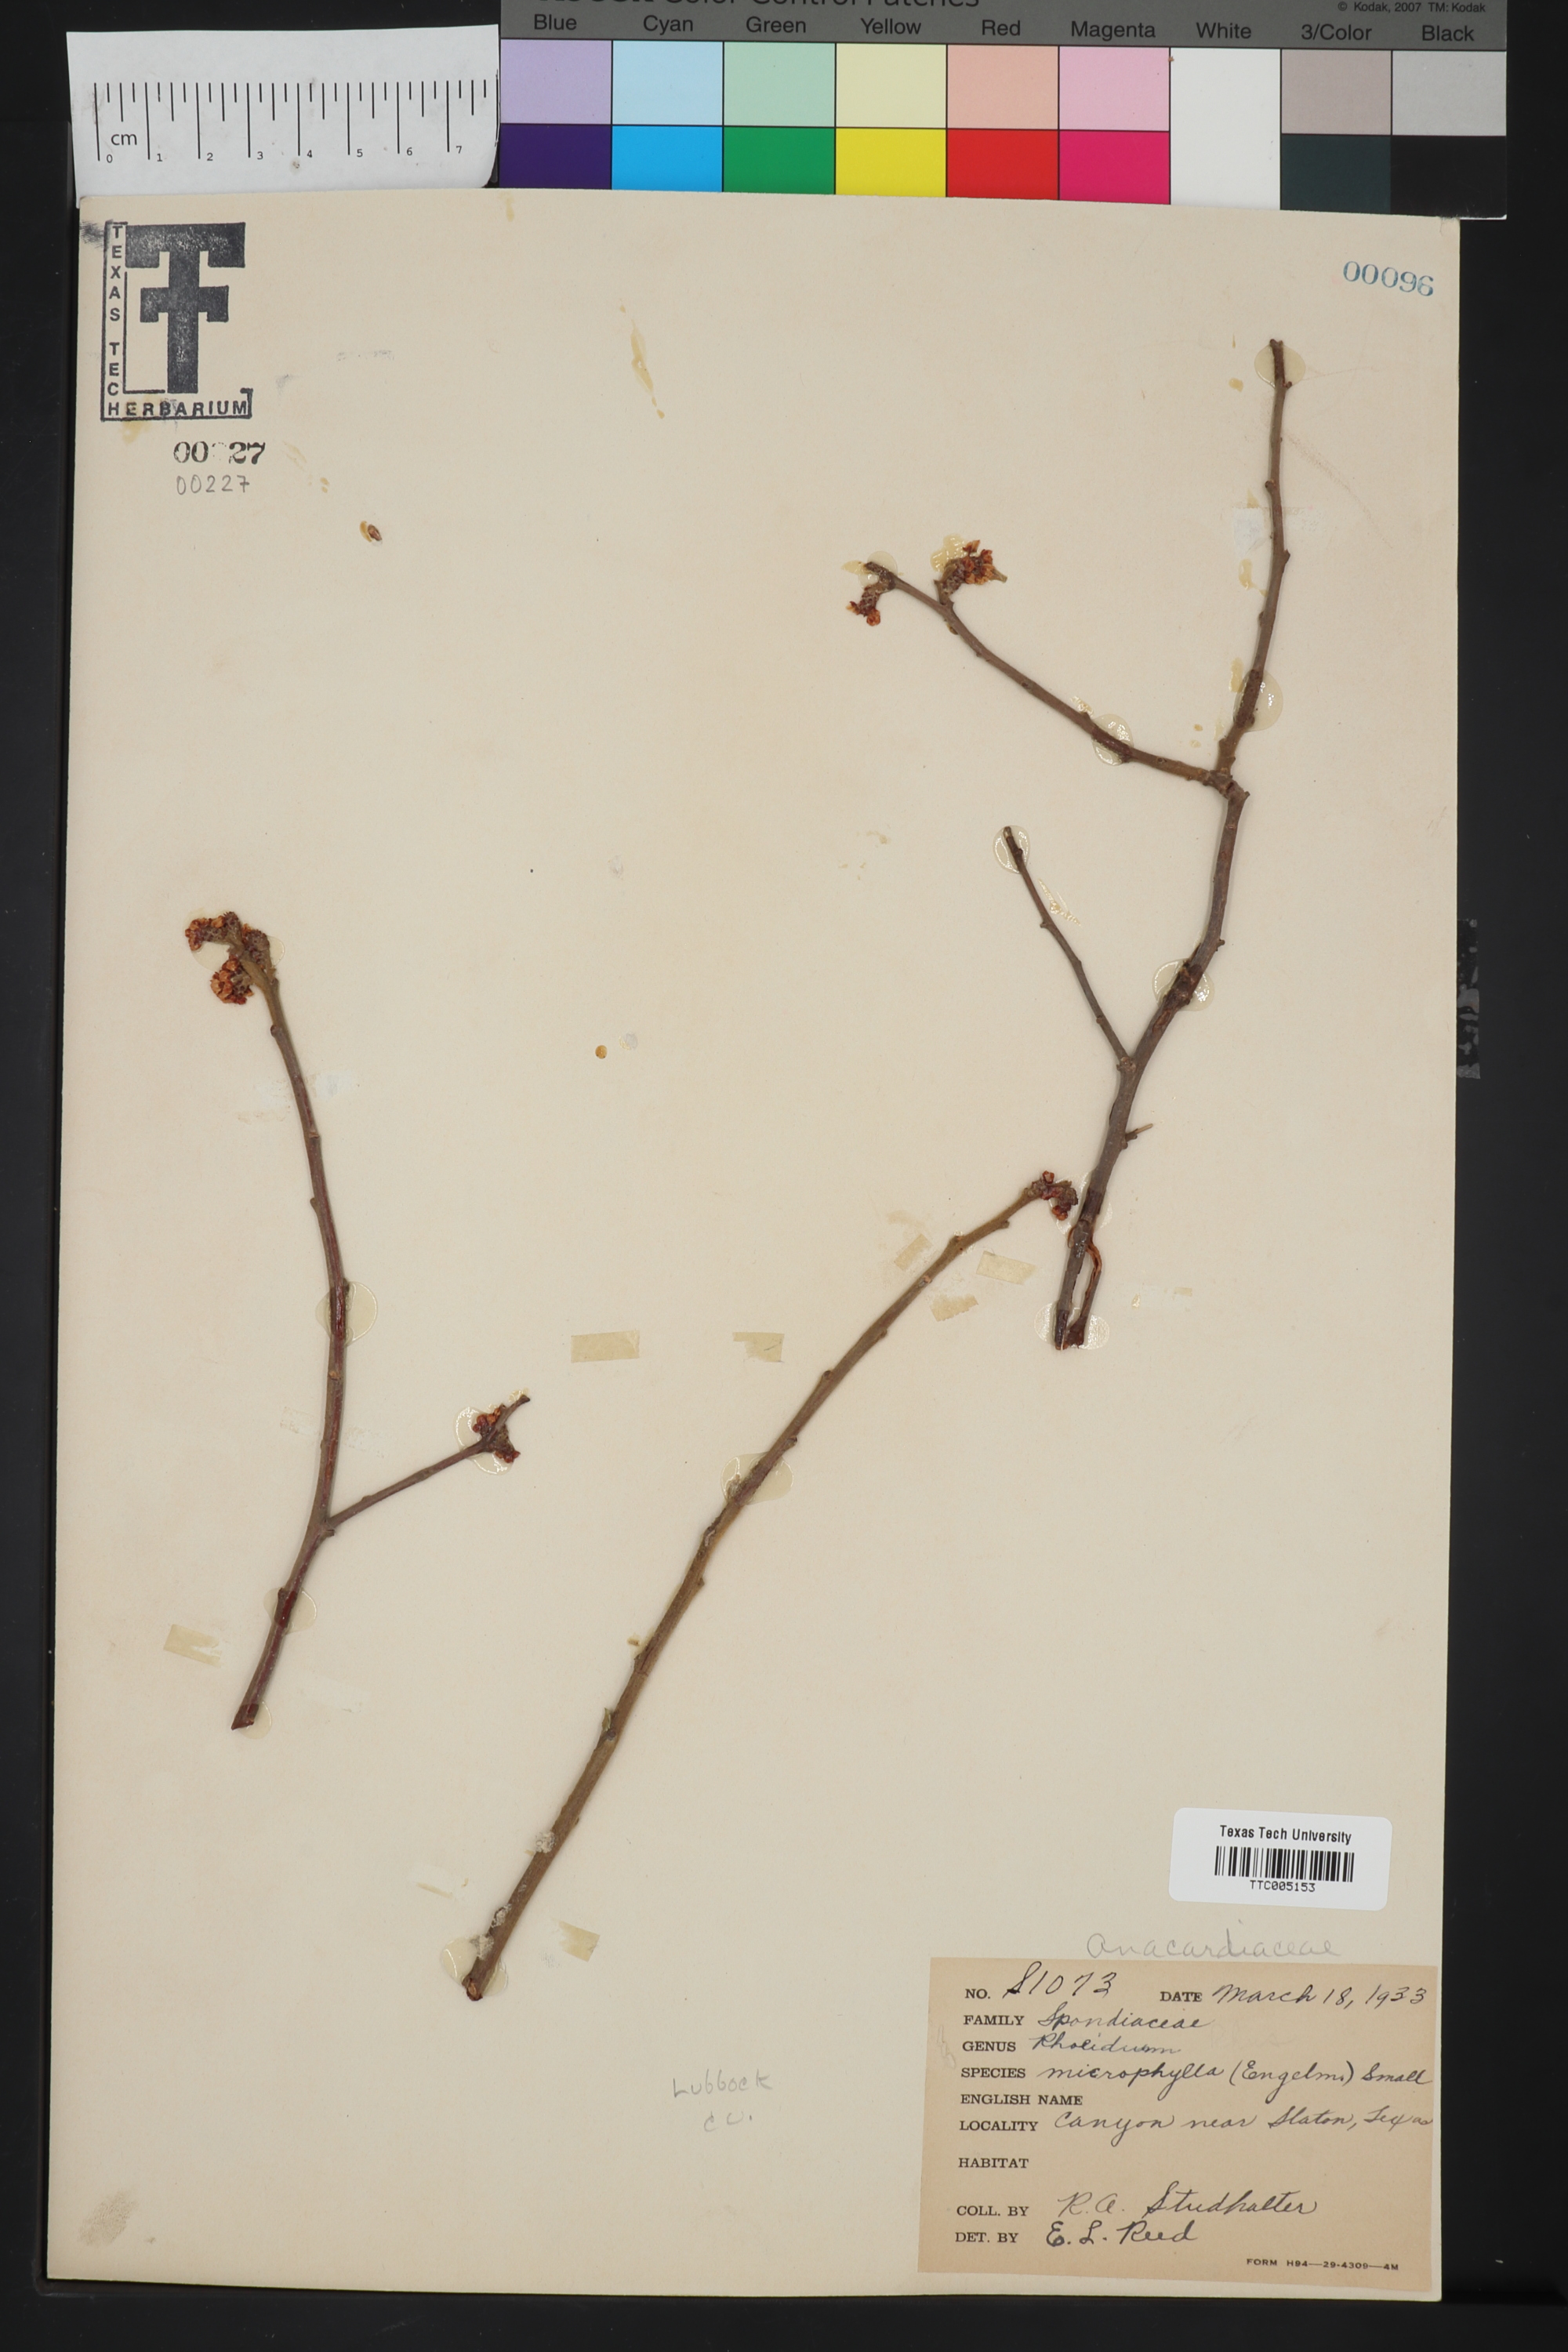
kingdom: Plantae
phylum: Tracheophyta
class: Magnoliopsida
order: Sapindales
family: Anacardiaceae
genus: Rhus
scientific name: Rhus microphylla
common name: Desert sumac
